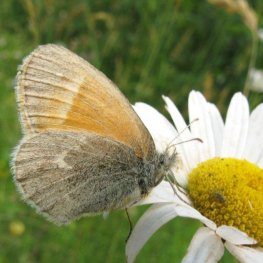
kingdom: Animalia
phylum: Arthropoda
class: Insecta
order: Lepidoptera
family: Nymphalidae
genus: Coenonympha
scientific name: Coenonympha tullia
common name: Large Heath
